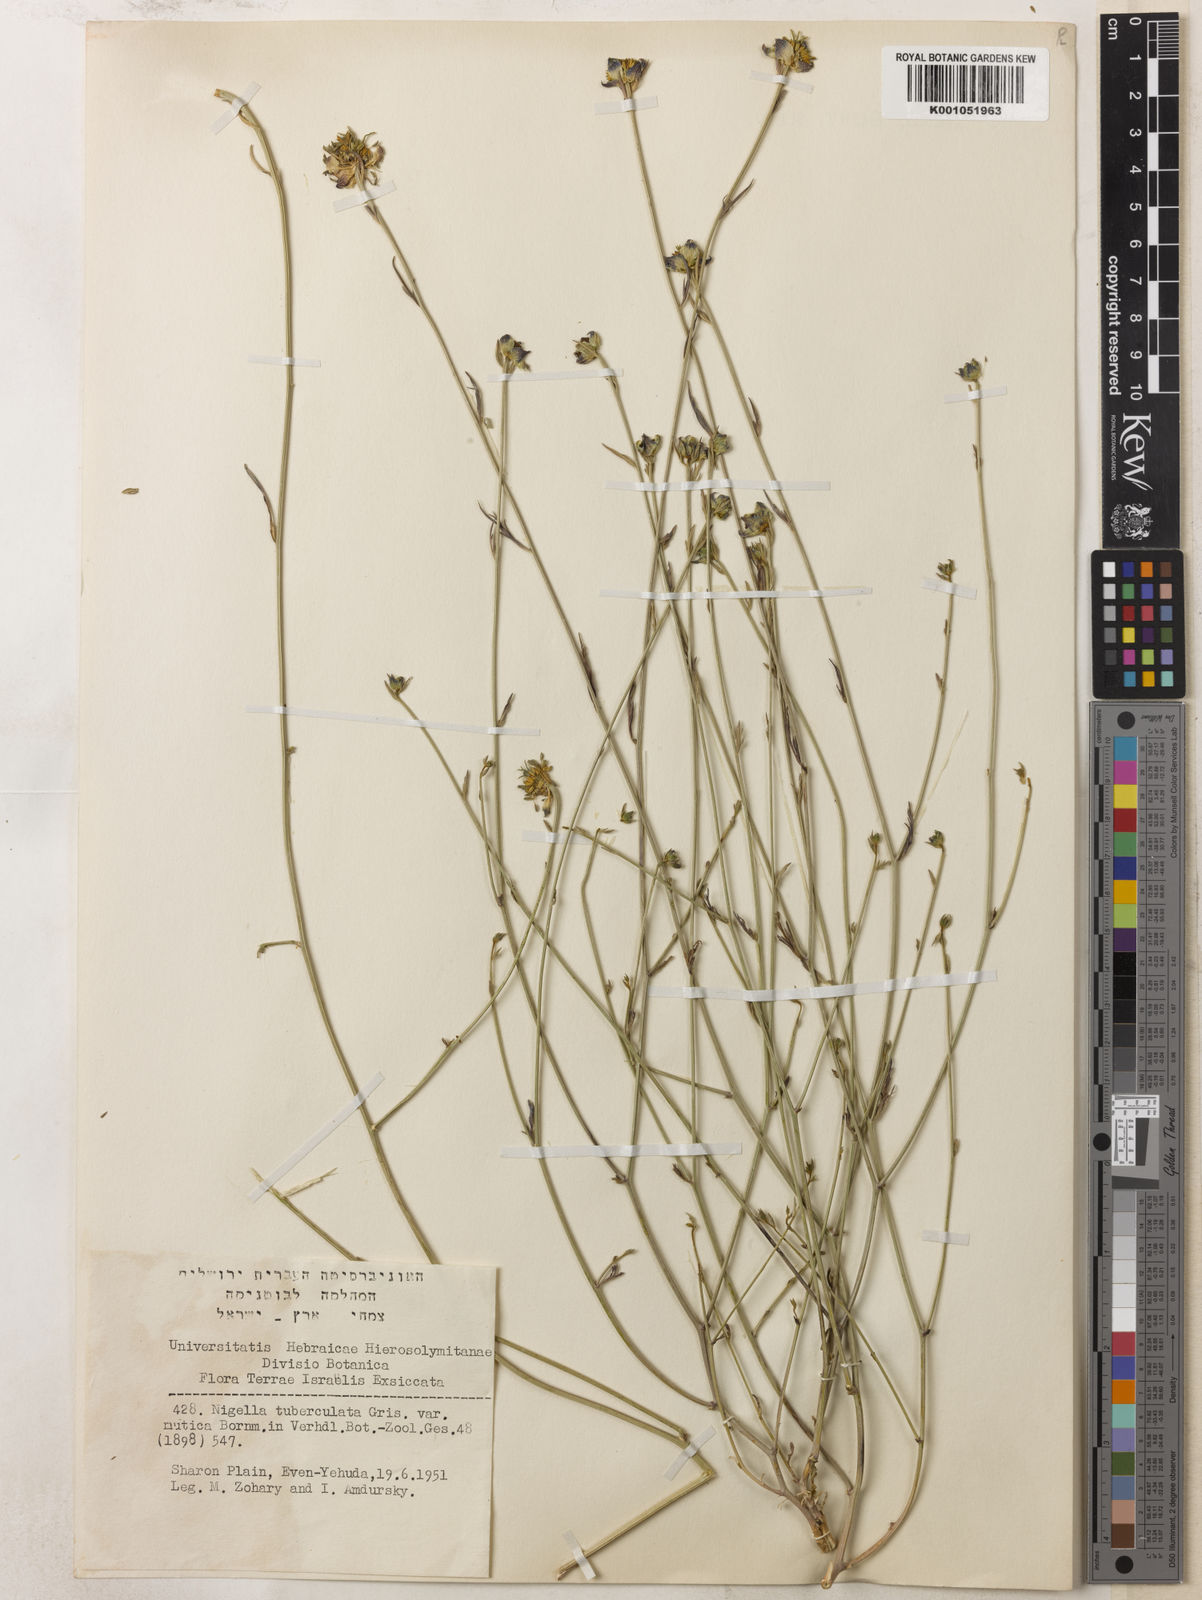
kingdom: Plantae
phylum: Tracheophyta
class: Magnoliopsida
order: Ranunculales
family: Ranunculaceae
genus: Nigella
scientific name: Nigella arvensis
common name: Wild fennel-flower
